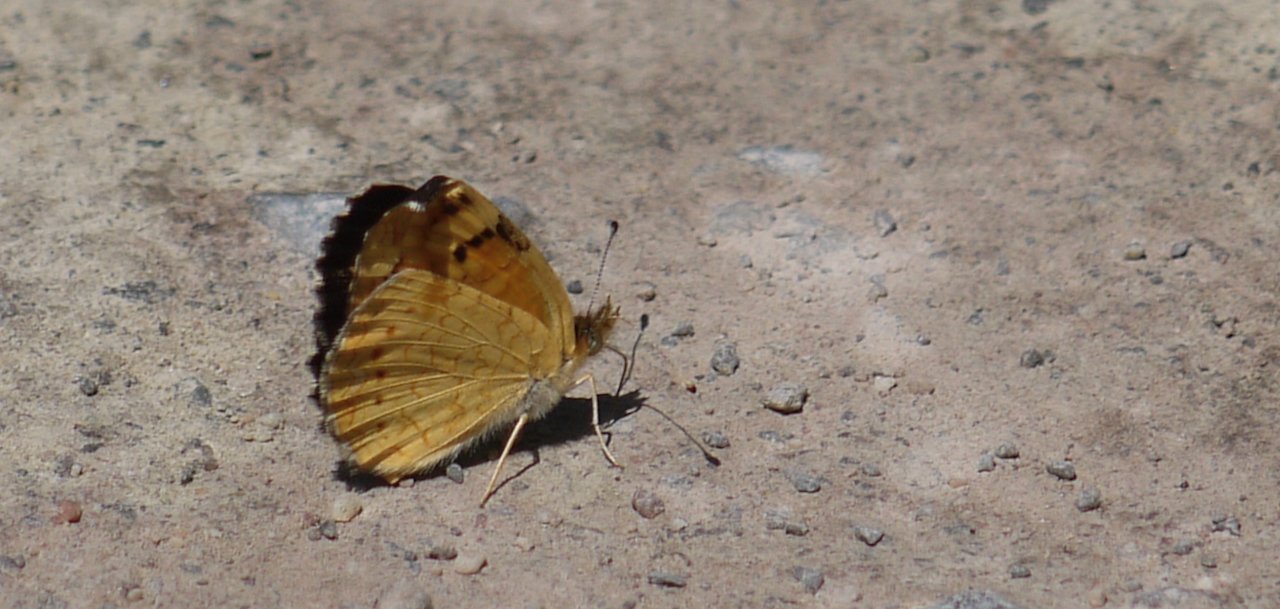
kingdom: Animalia
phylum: Arthropoda
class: Insecta
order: Lepidoptera
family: Nymphalidae
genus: Phyciodes
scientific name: Phyciodes batesii
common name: Tawny Crescent
